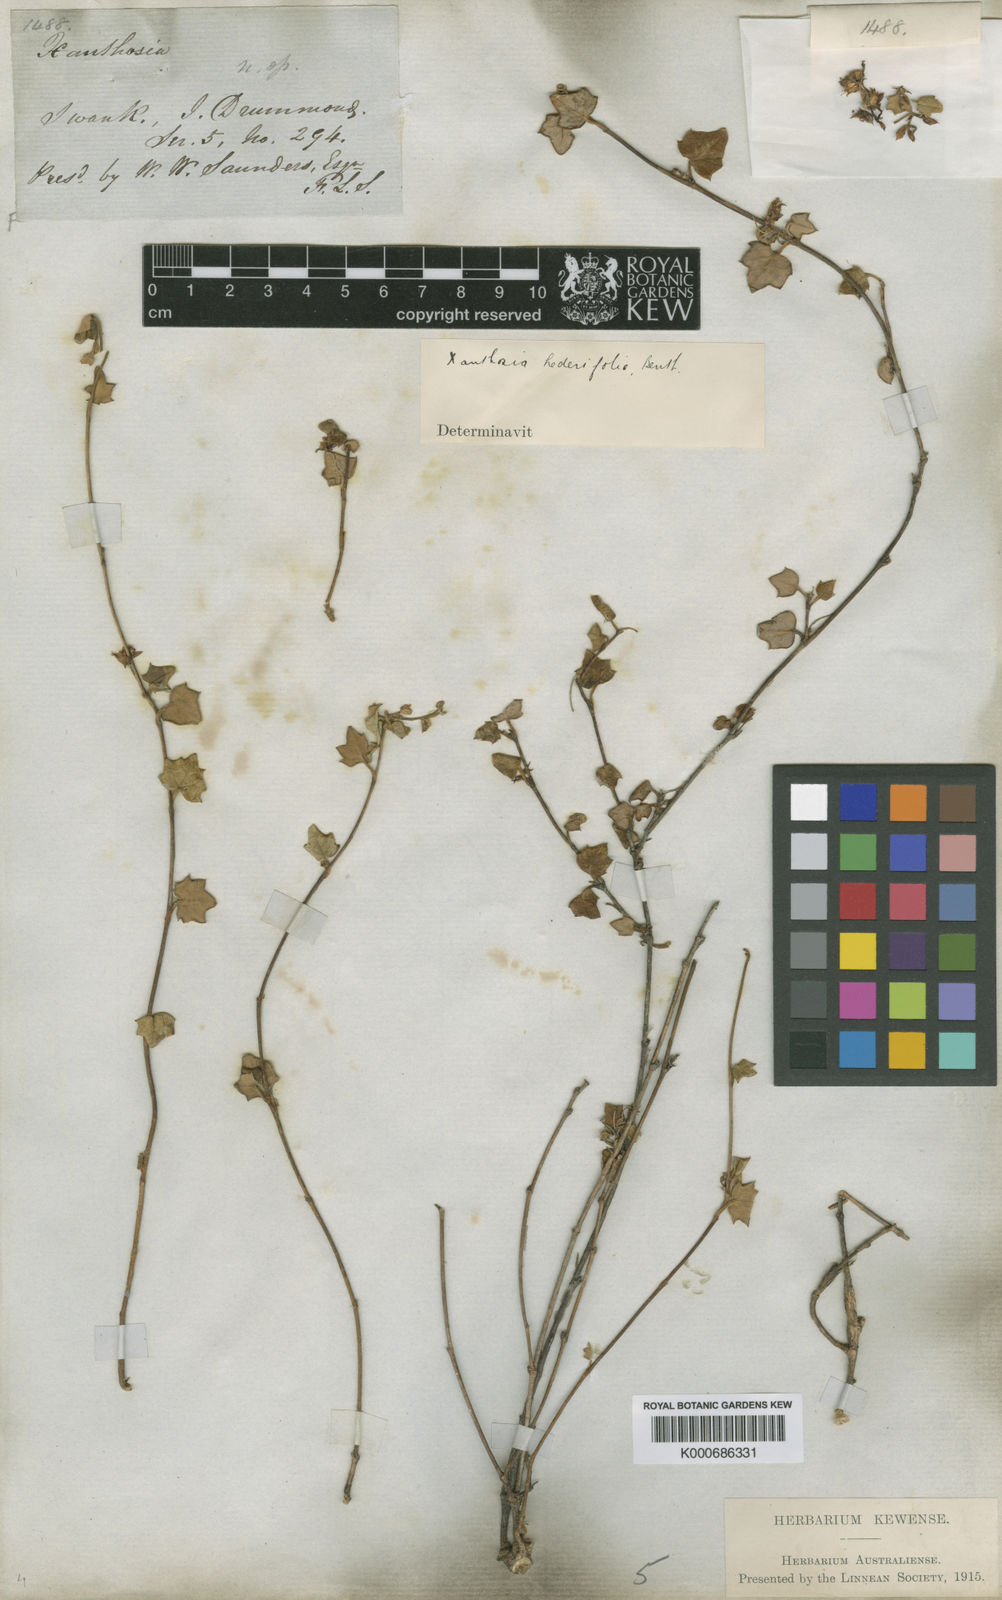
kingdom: Plantae
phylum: Tracheophyta
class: Magnoliopsida
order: Apiales
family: Apiaceae
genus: Xanthosia
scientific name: Xanthosia hederifolia
